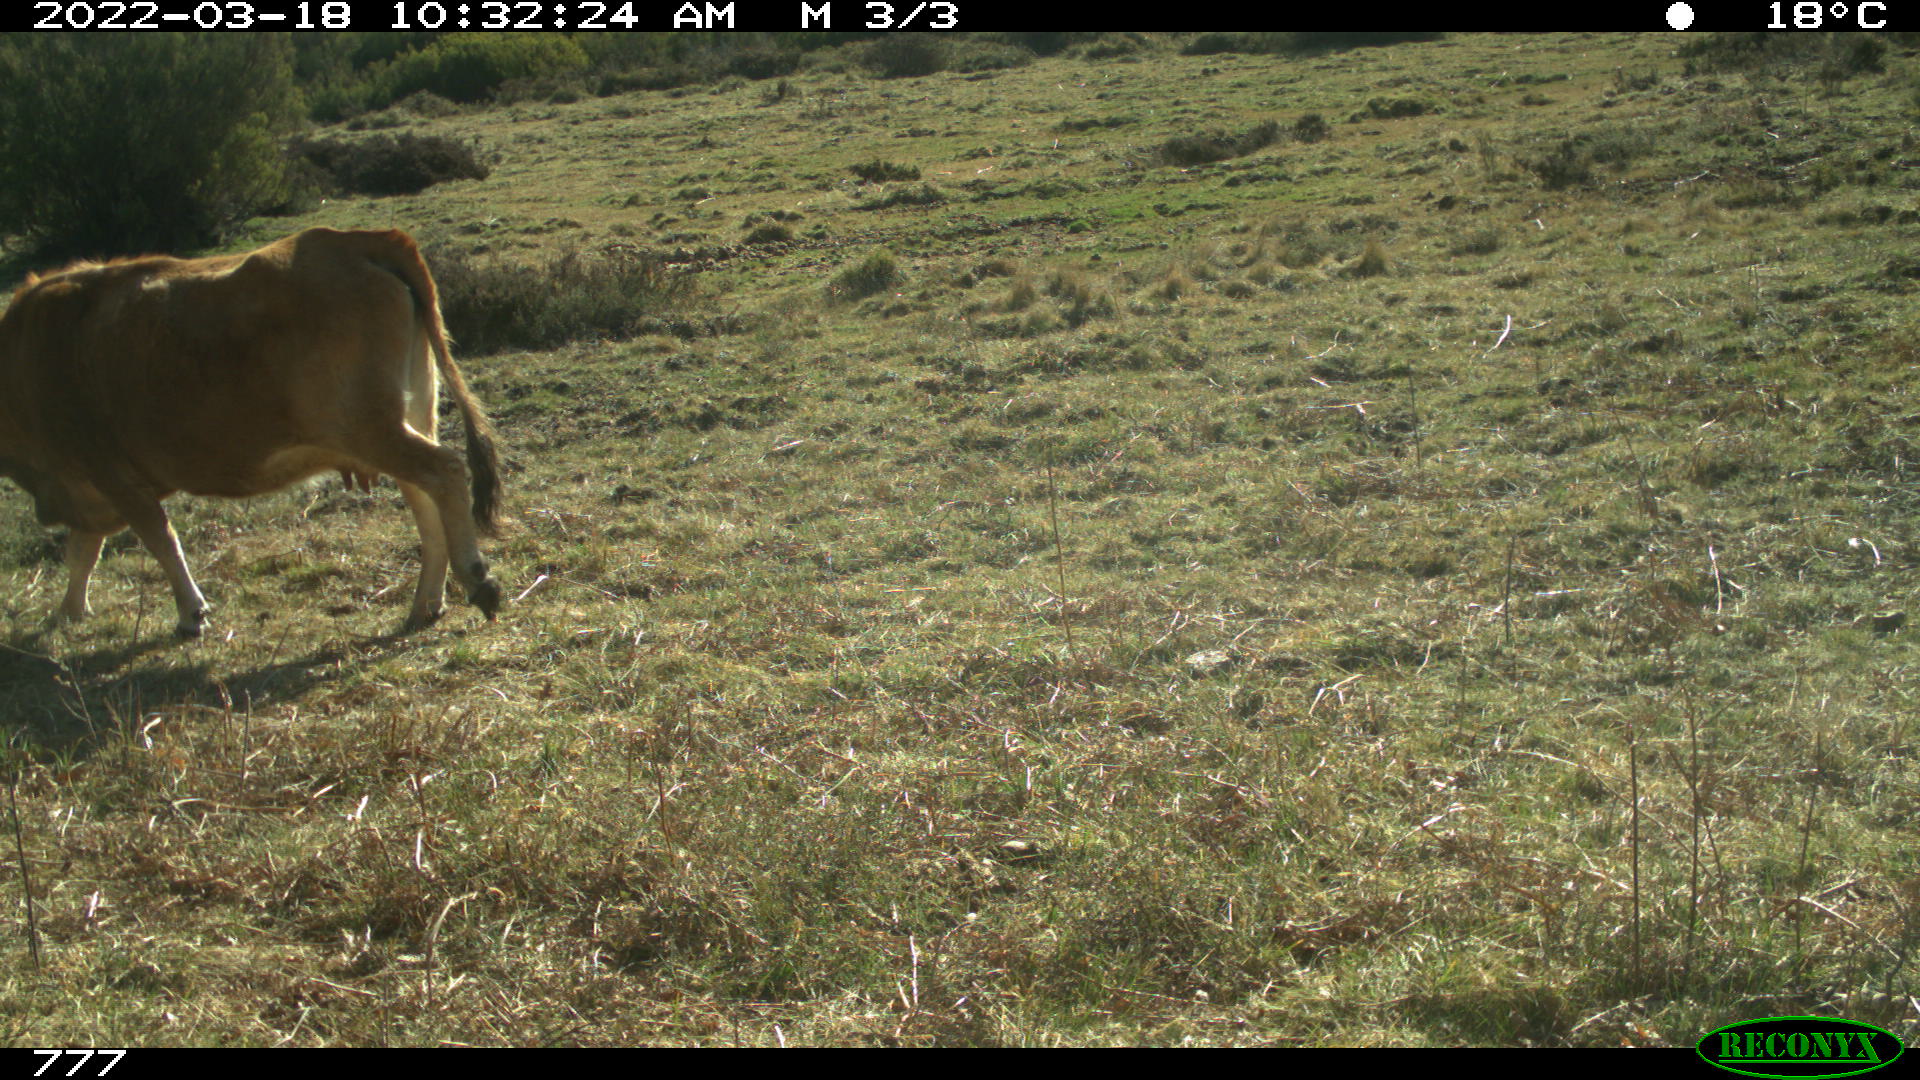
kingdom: Animalia
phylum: Chordata
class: Mammalia
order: Artiodactyla
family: Bovidae
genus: Bos
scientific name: Bos taurus
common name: Domesticated cattle
